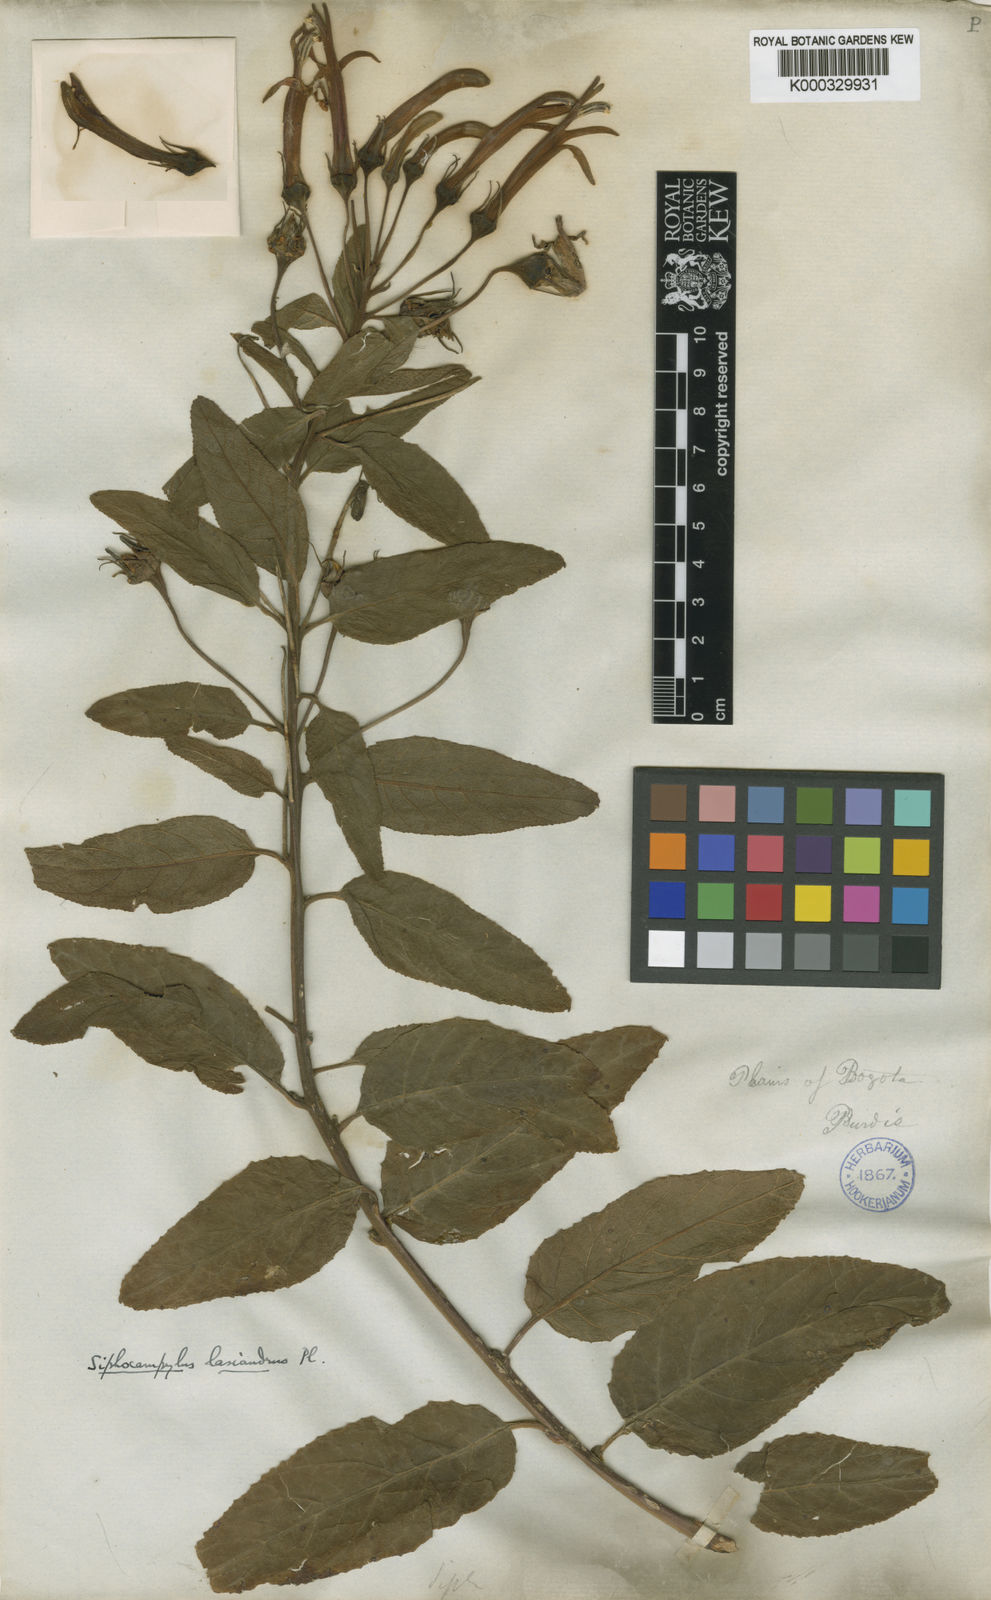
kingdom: Plantae
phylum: Tracheophyta
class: Magnoliopsida
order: Asterales
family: Campanulaceae
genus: Siphocampylus
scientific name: Siphocampylus lasiandrus
